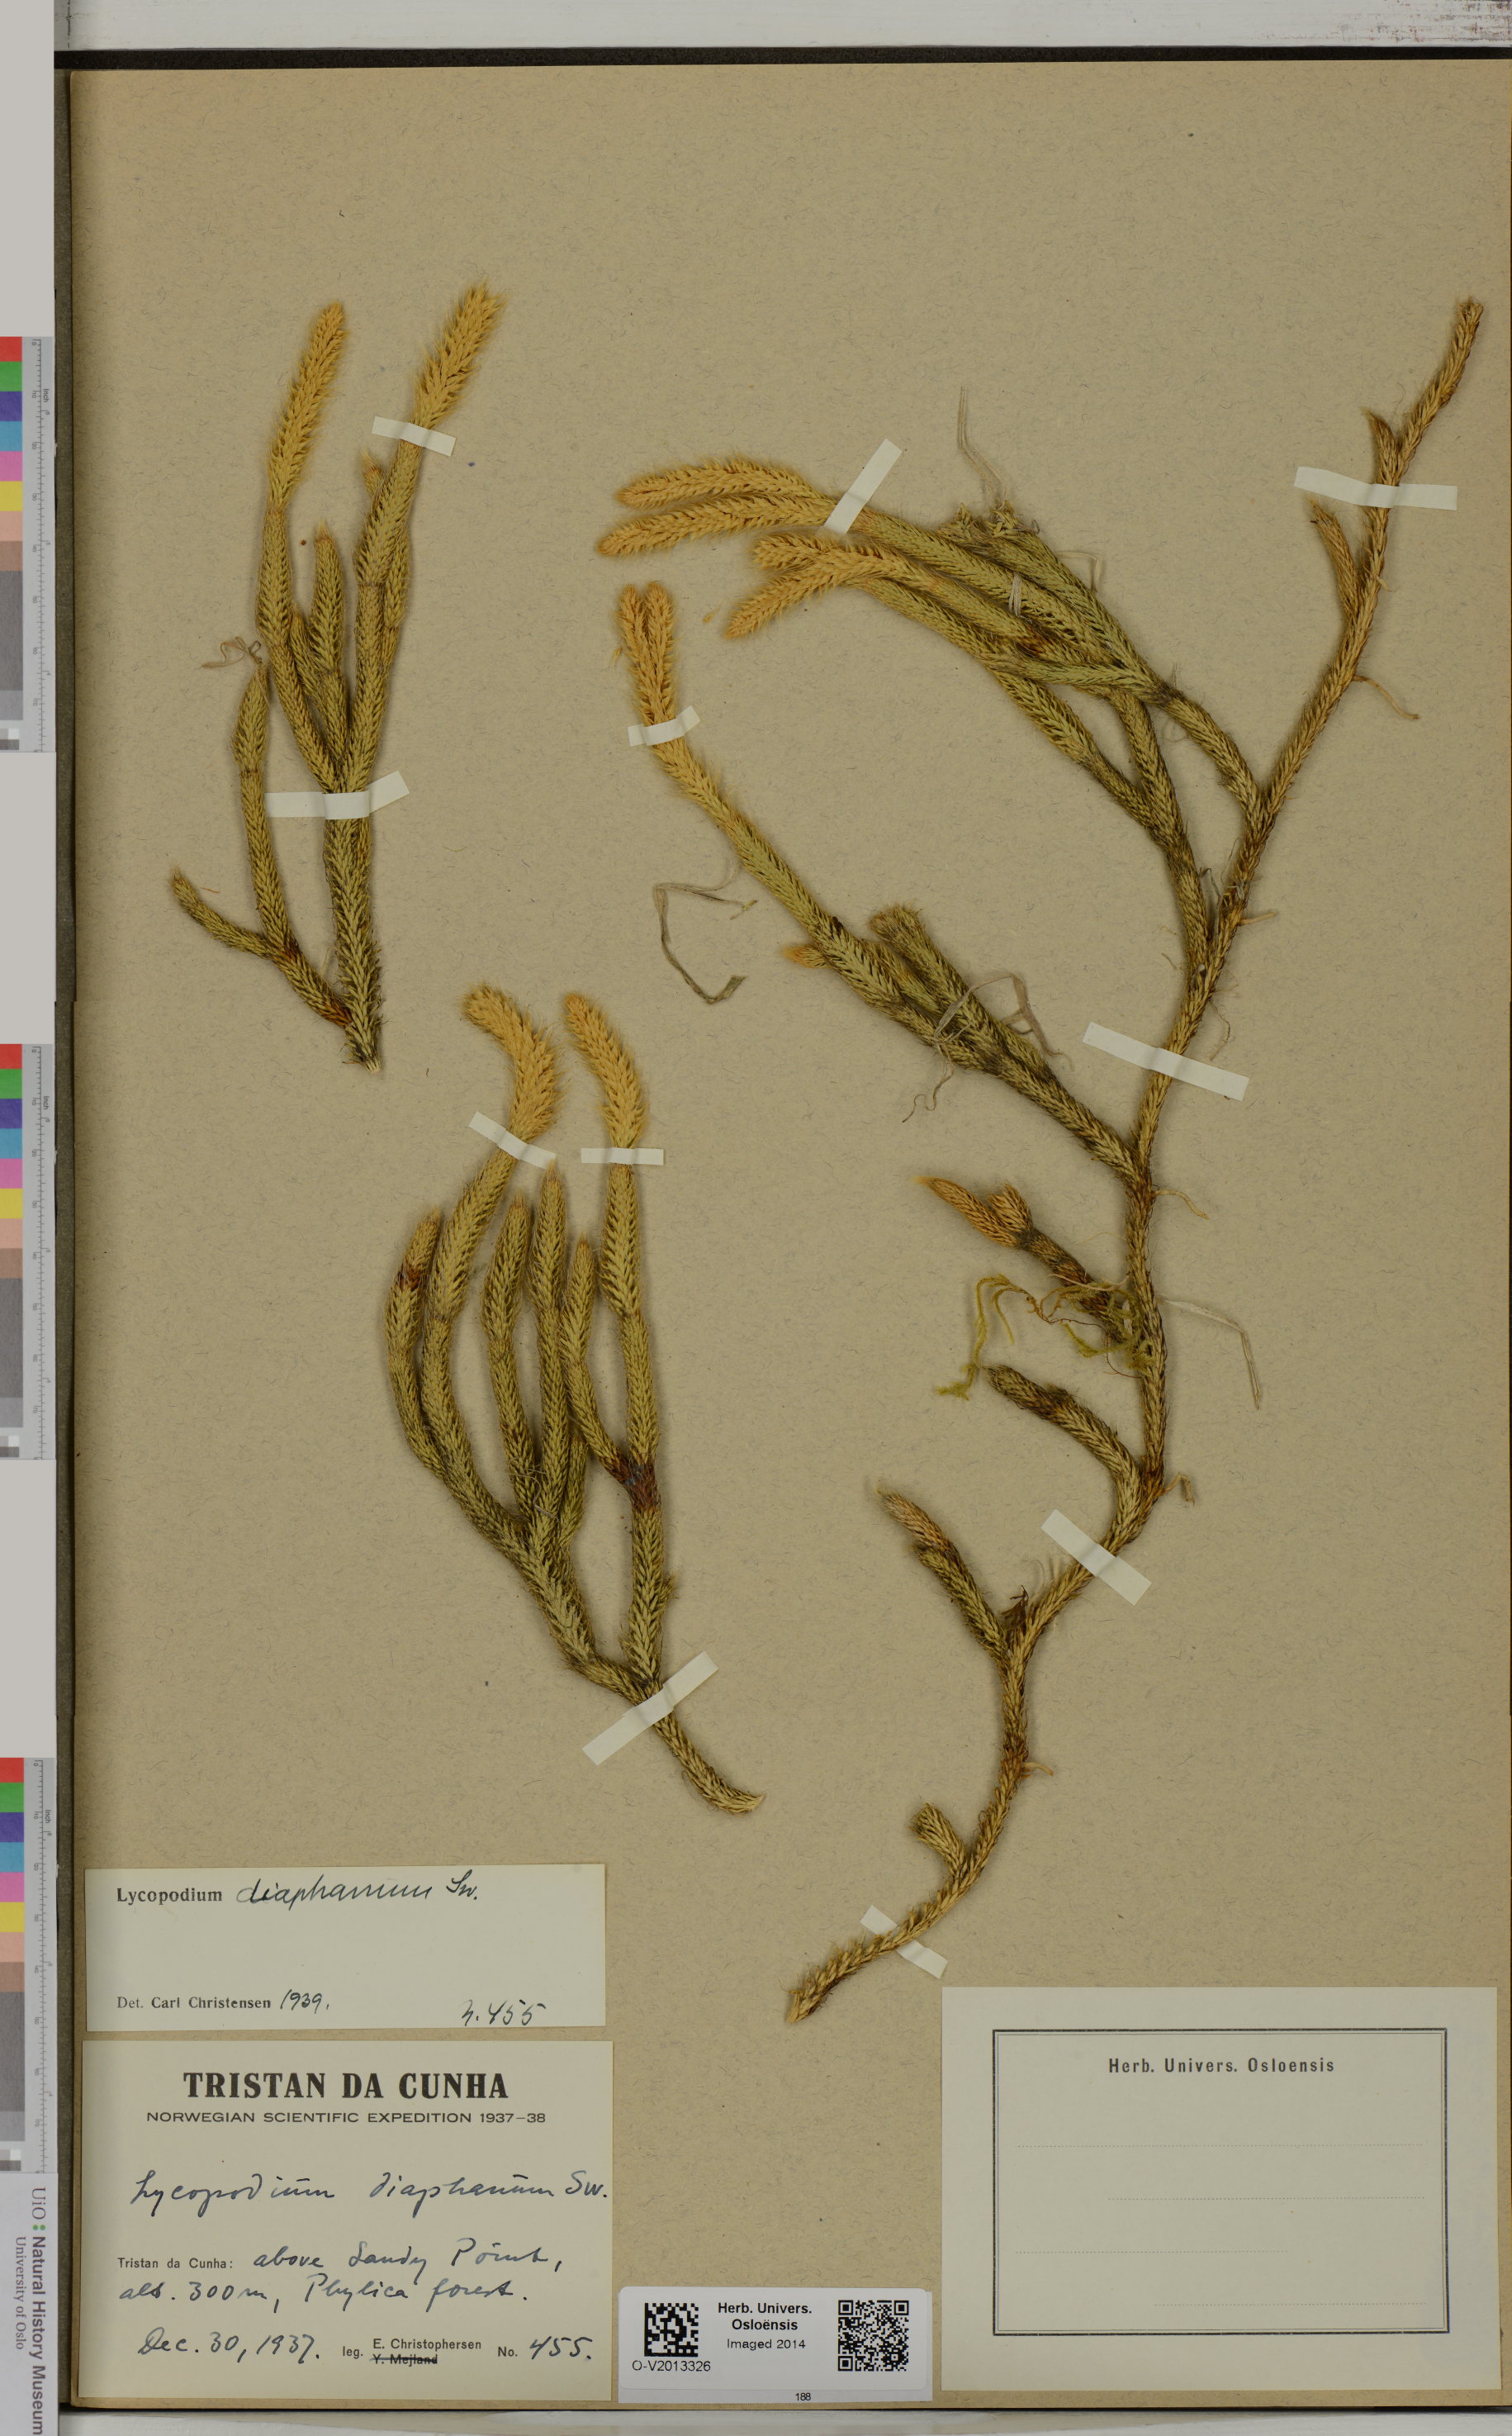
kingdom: Plantae
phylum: Tracheophyta
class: Lycopodiopsida
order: Lycopodiales
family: Lycopodiaceae
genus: Lycopodium
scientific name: Lycopodium diaphanum
